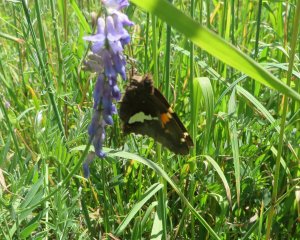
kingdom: Animalia
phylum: Arthropoda
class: Insecta
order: Lepidoptera
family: Hesperiidae
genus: Epargyreus
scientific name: Epargyreus clarus
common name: Silver-spotted Skipper
